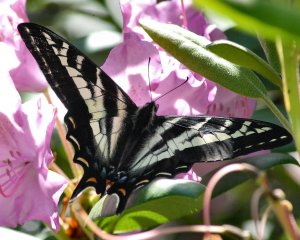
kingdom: Animalia
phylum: Arthropoda
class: Insecta
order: Lepidoptera
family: Papilionidae
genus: Pterourus
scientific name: Pterourus eurymedon
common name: Pale Swallowtail
